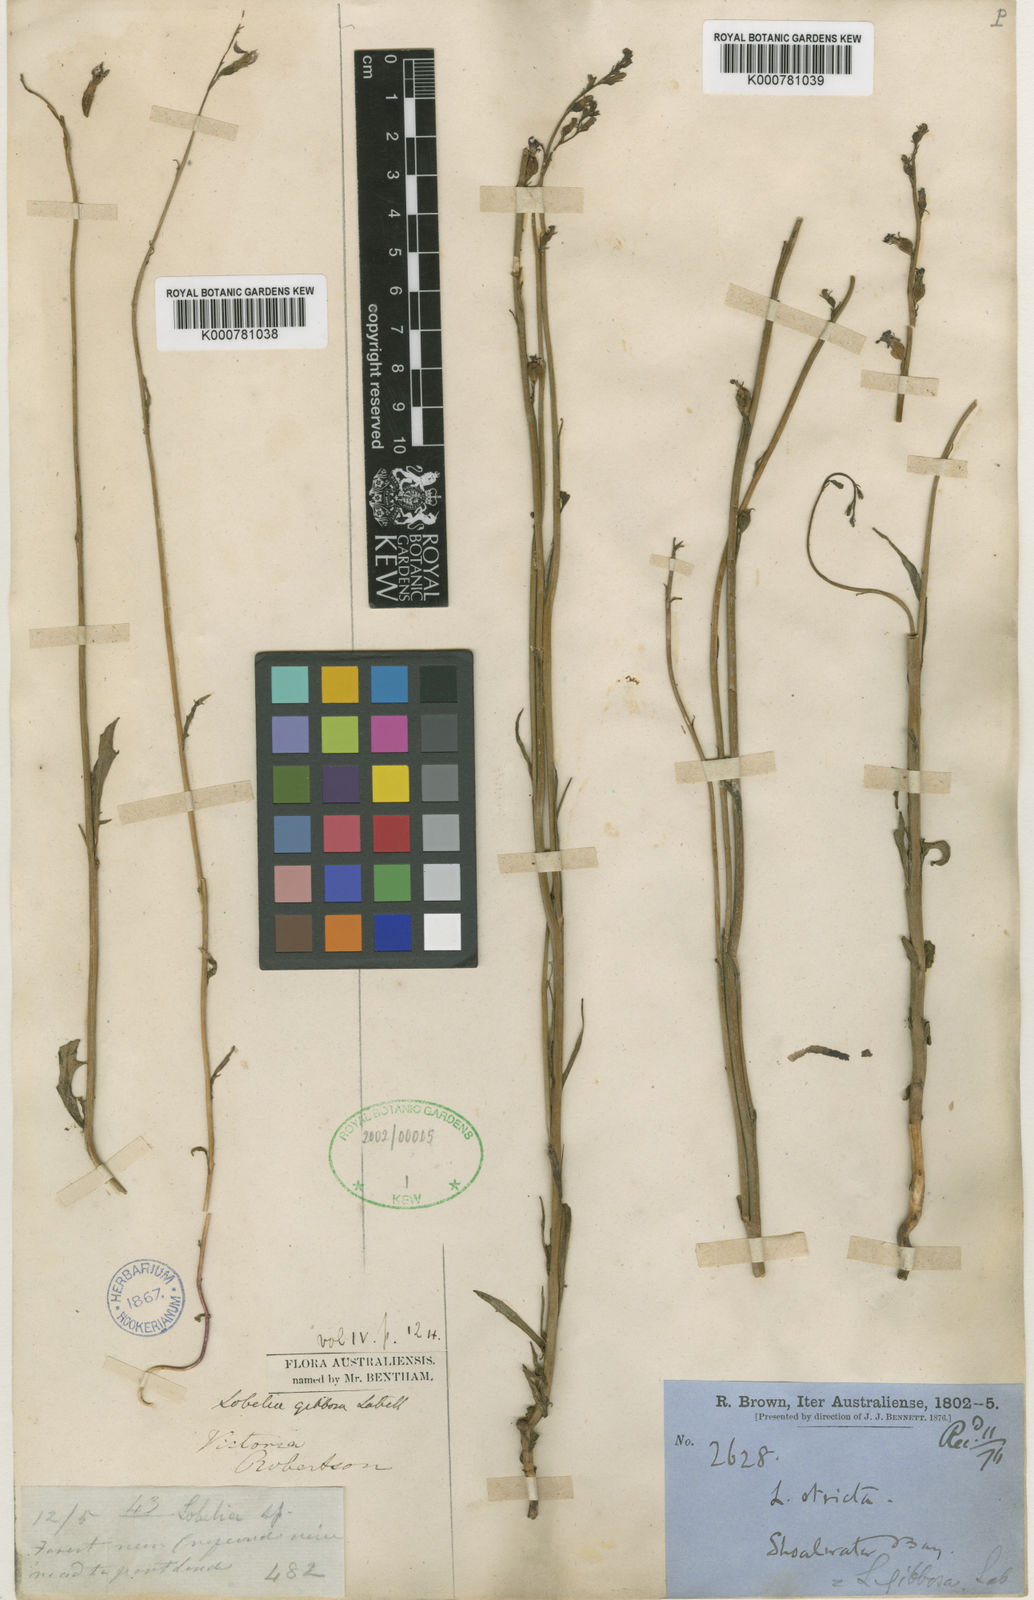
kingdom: Plantae
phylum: Tracheophyta
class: Magnoliopsida
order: Asterales
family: Campanulaceae
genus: Lobelia
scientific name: Lobelia gibbosa
